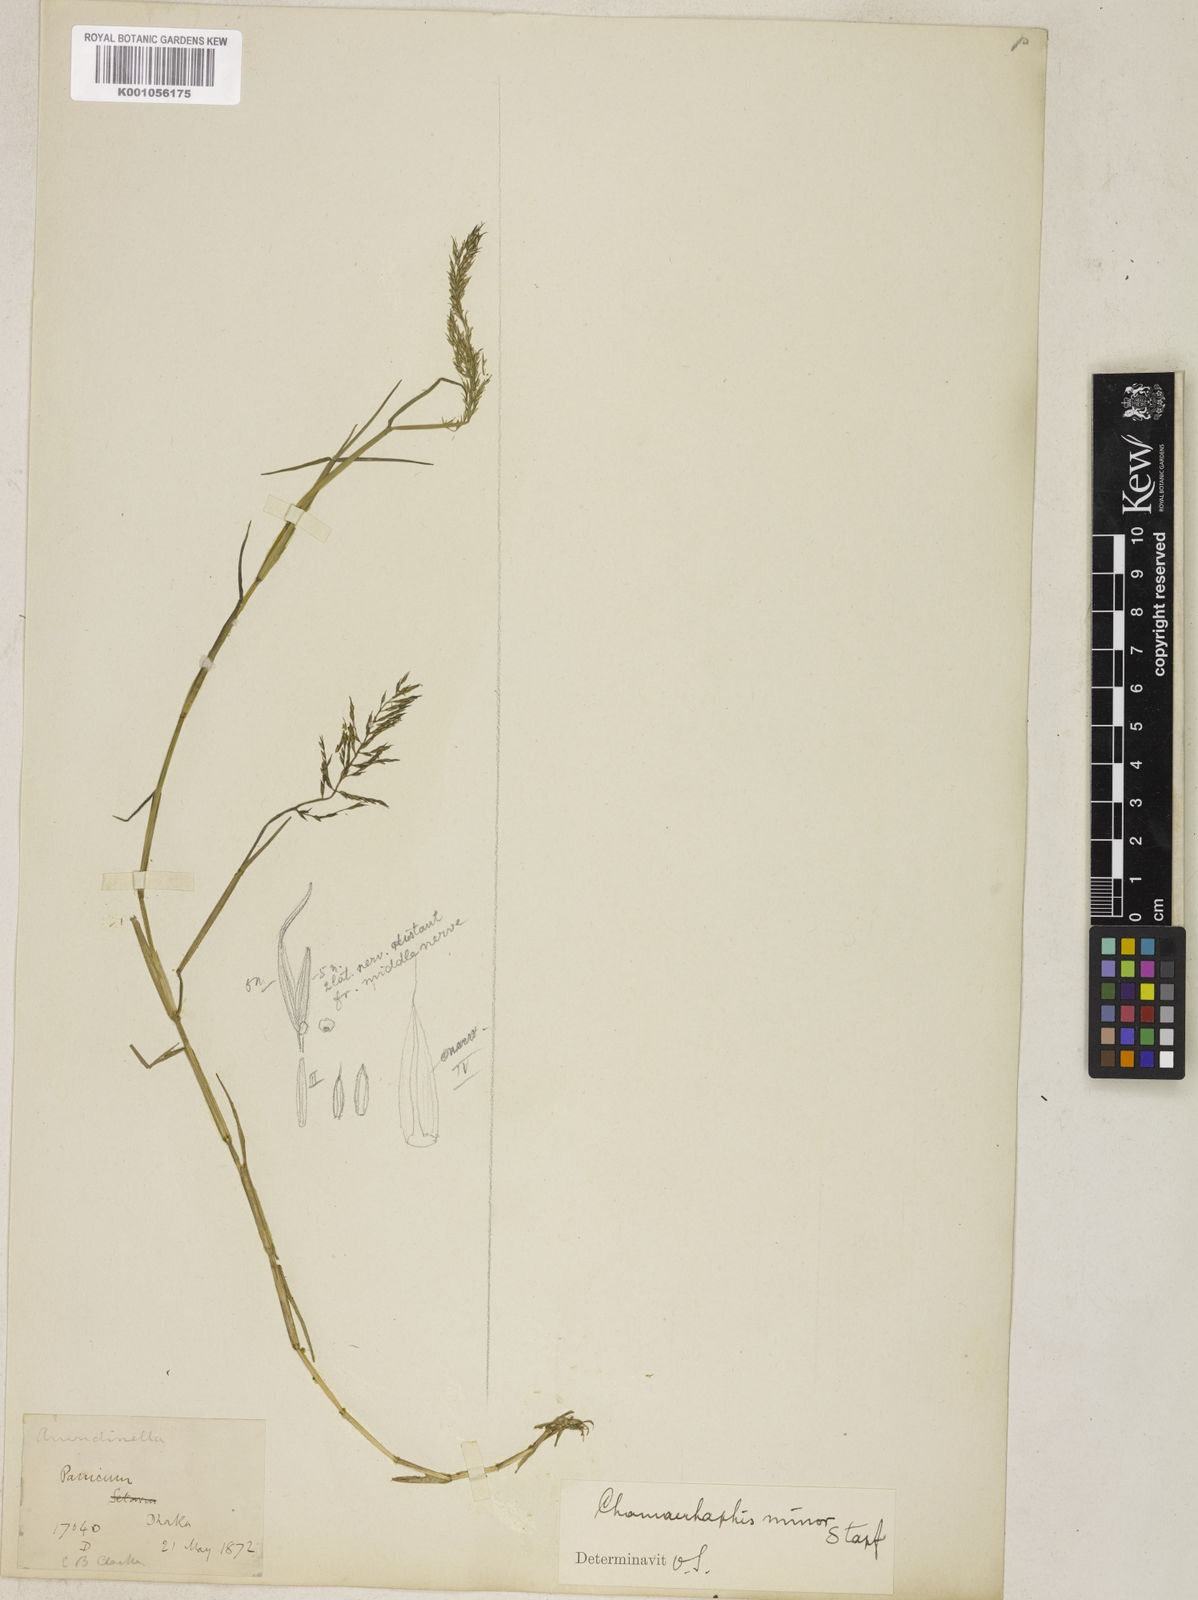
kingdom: Plantae
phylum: Tracheophyta
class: Liliopsida
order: Poales
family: Poaceae
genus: Pseudoraphis
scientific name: Pseudoraphis minuta
